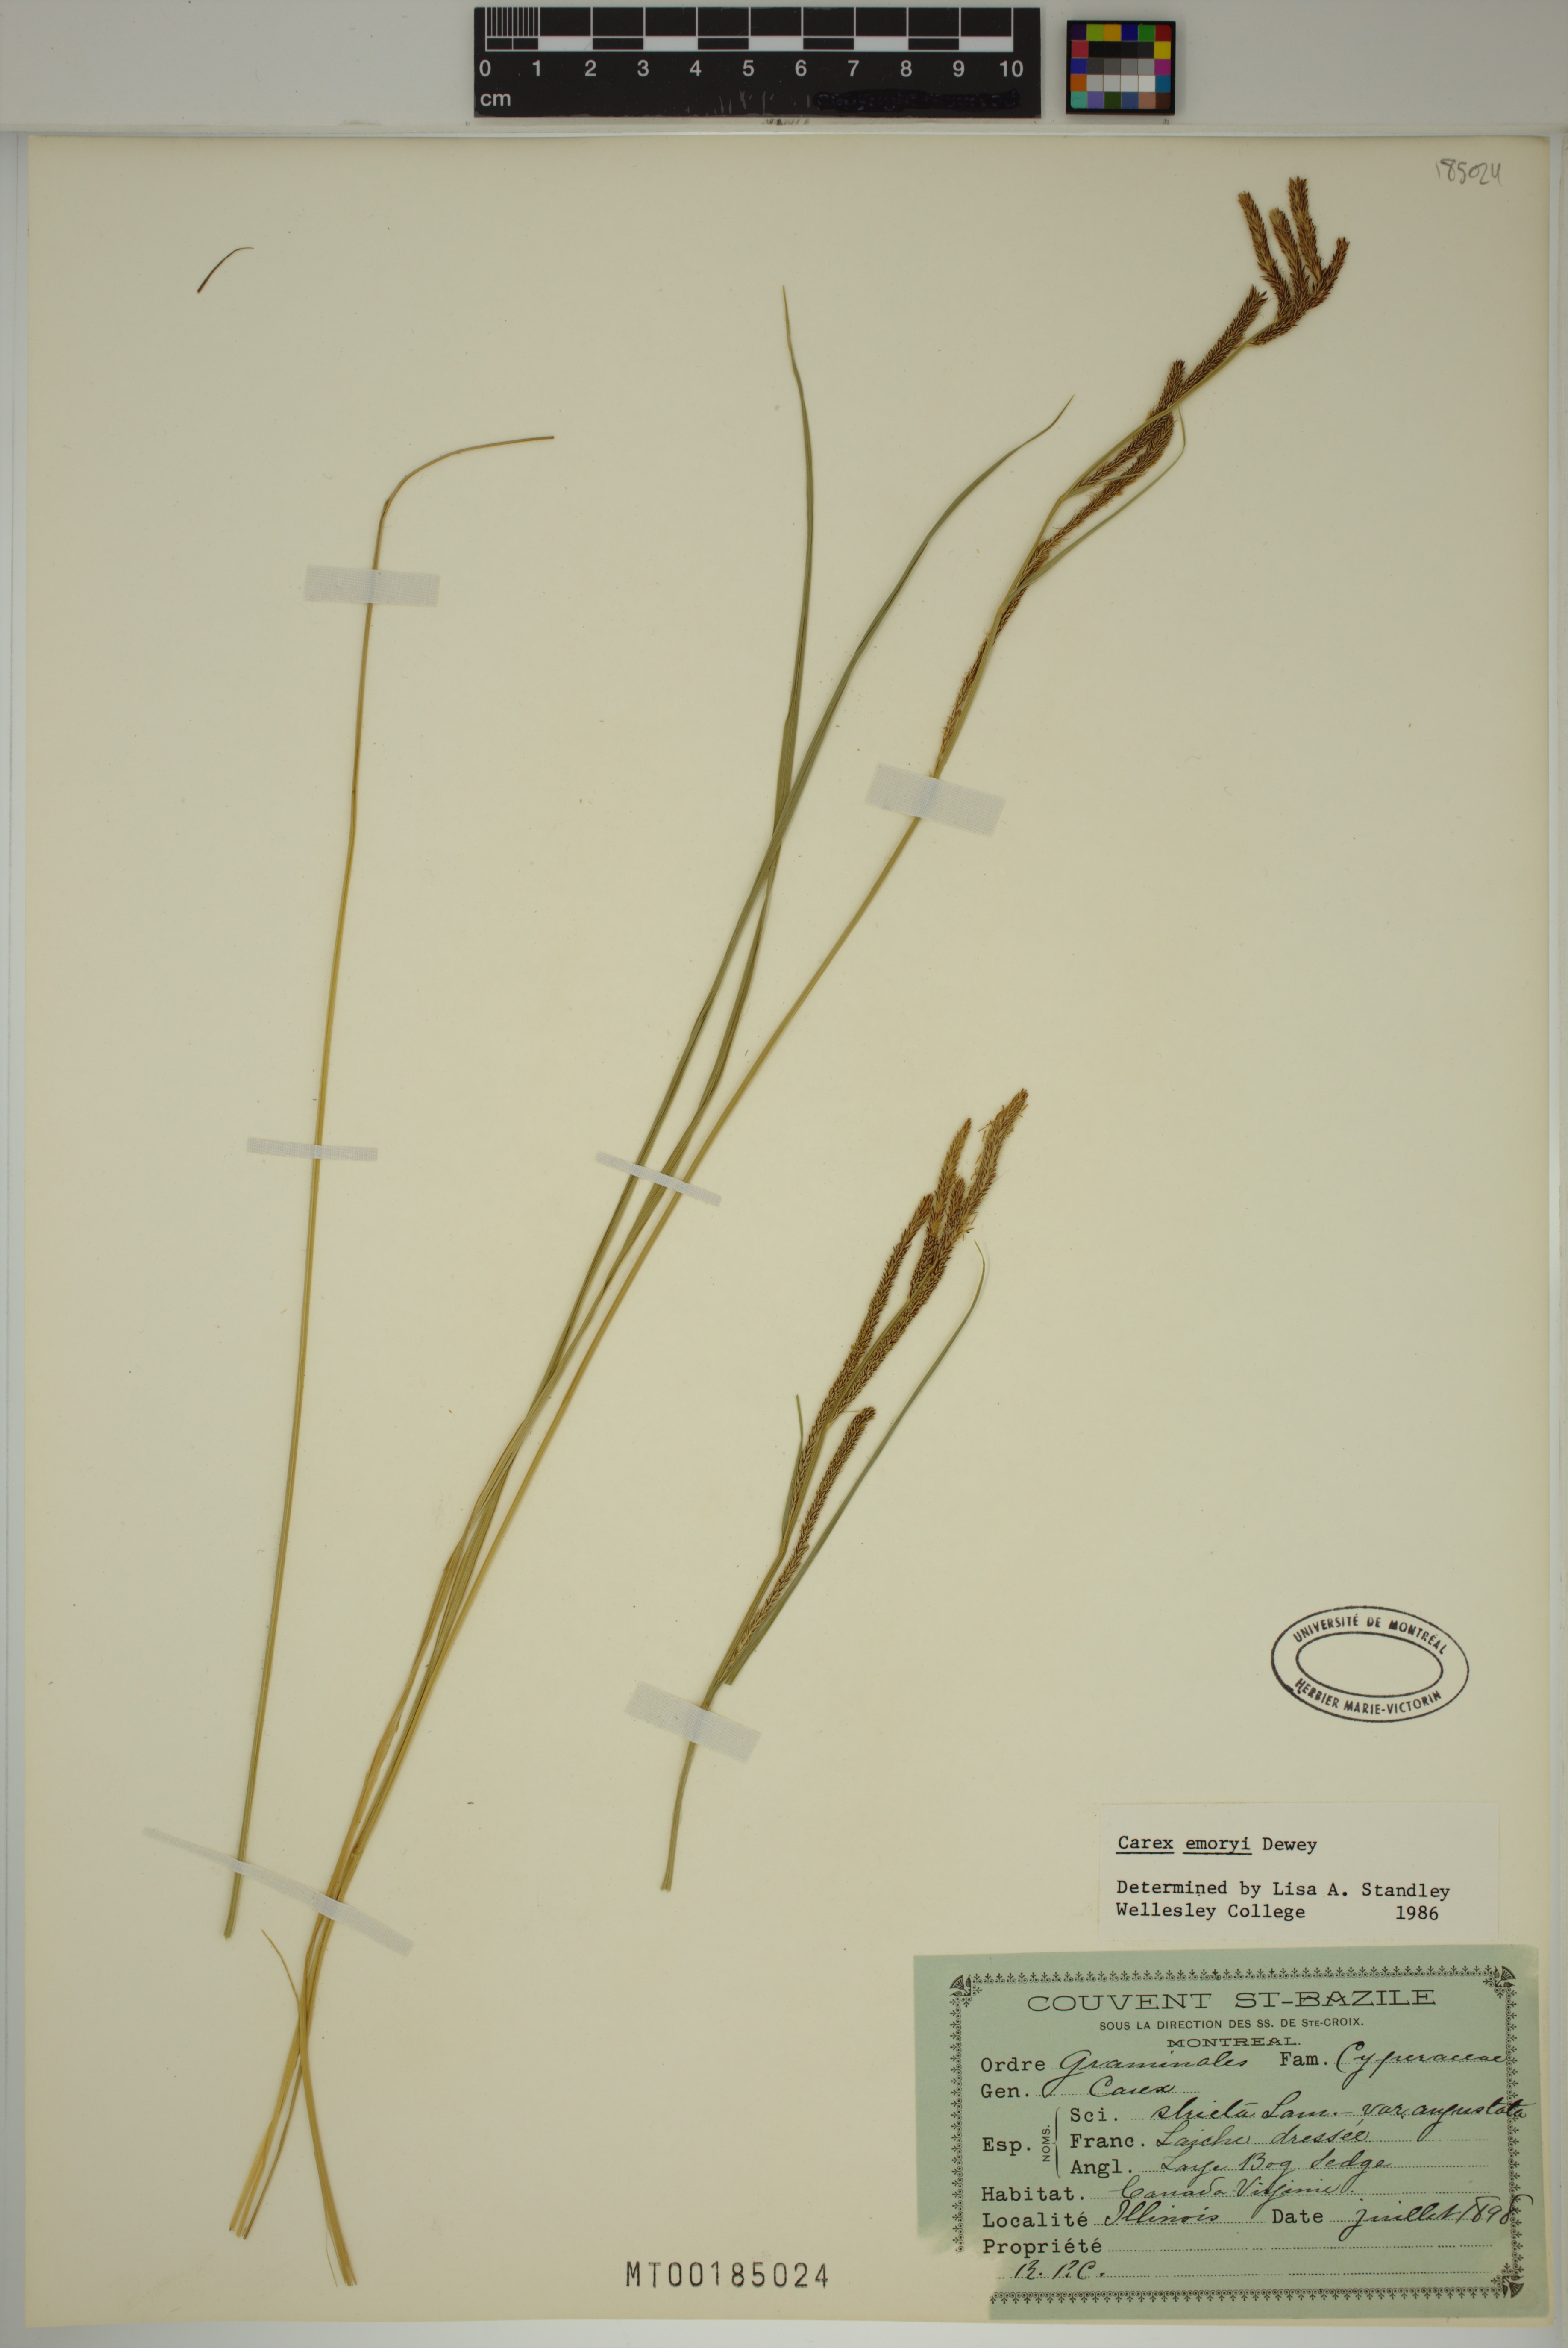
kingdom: Plantae
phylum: Tracheophyta
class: Liliopsida
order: Poales
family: Cyperaceae
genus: Carex
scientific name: Carex emoryi
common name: Emory's sedge
